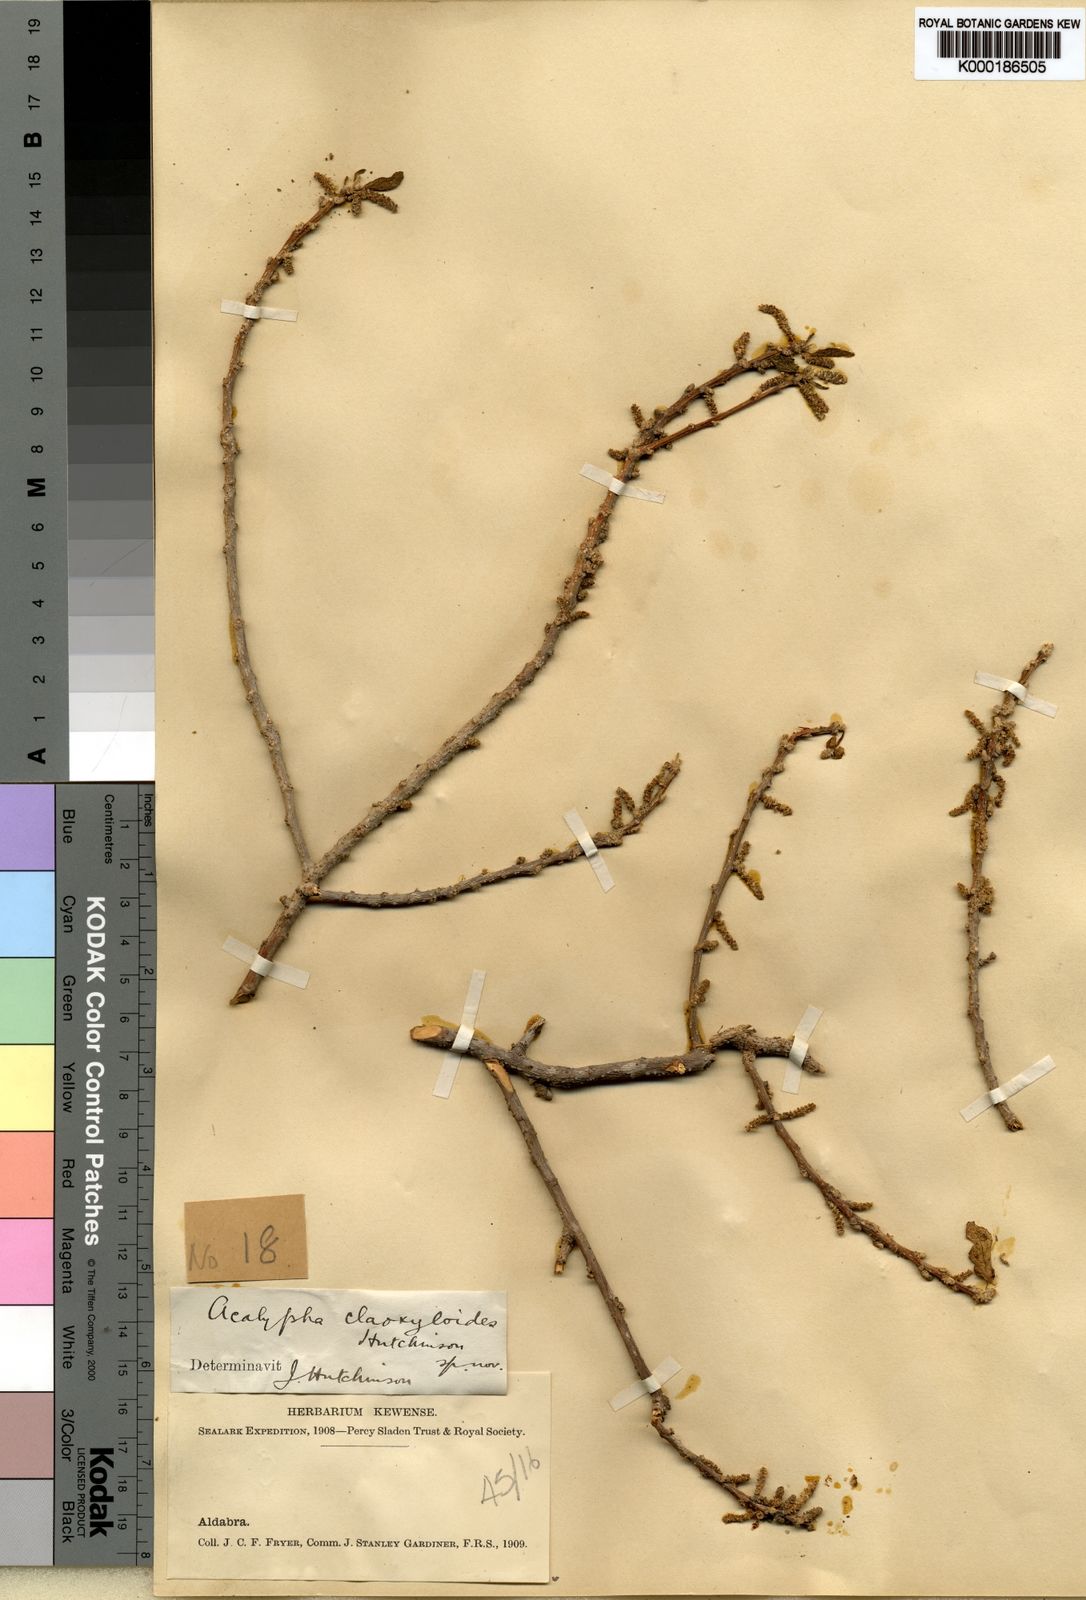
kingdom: Plantae
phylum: Tracheophyta
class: Magnoliopsida
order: Malpighiales
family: Euphorbiaceae
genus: Acalypha
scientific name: Acalypha claoxyloides
